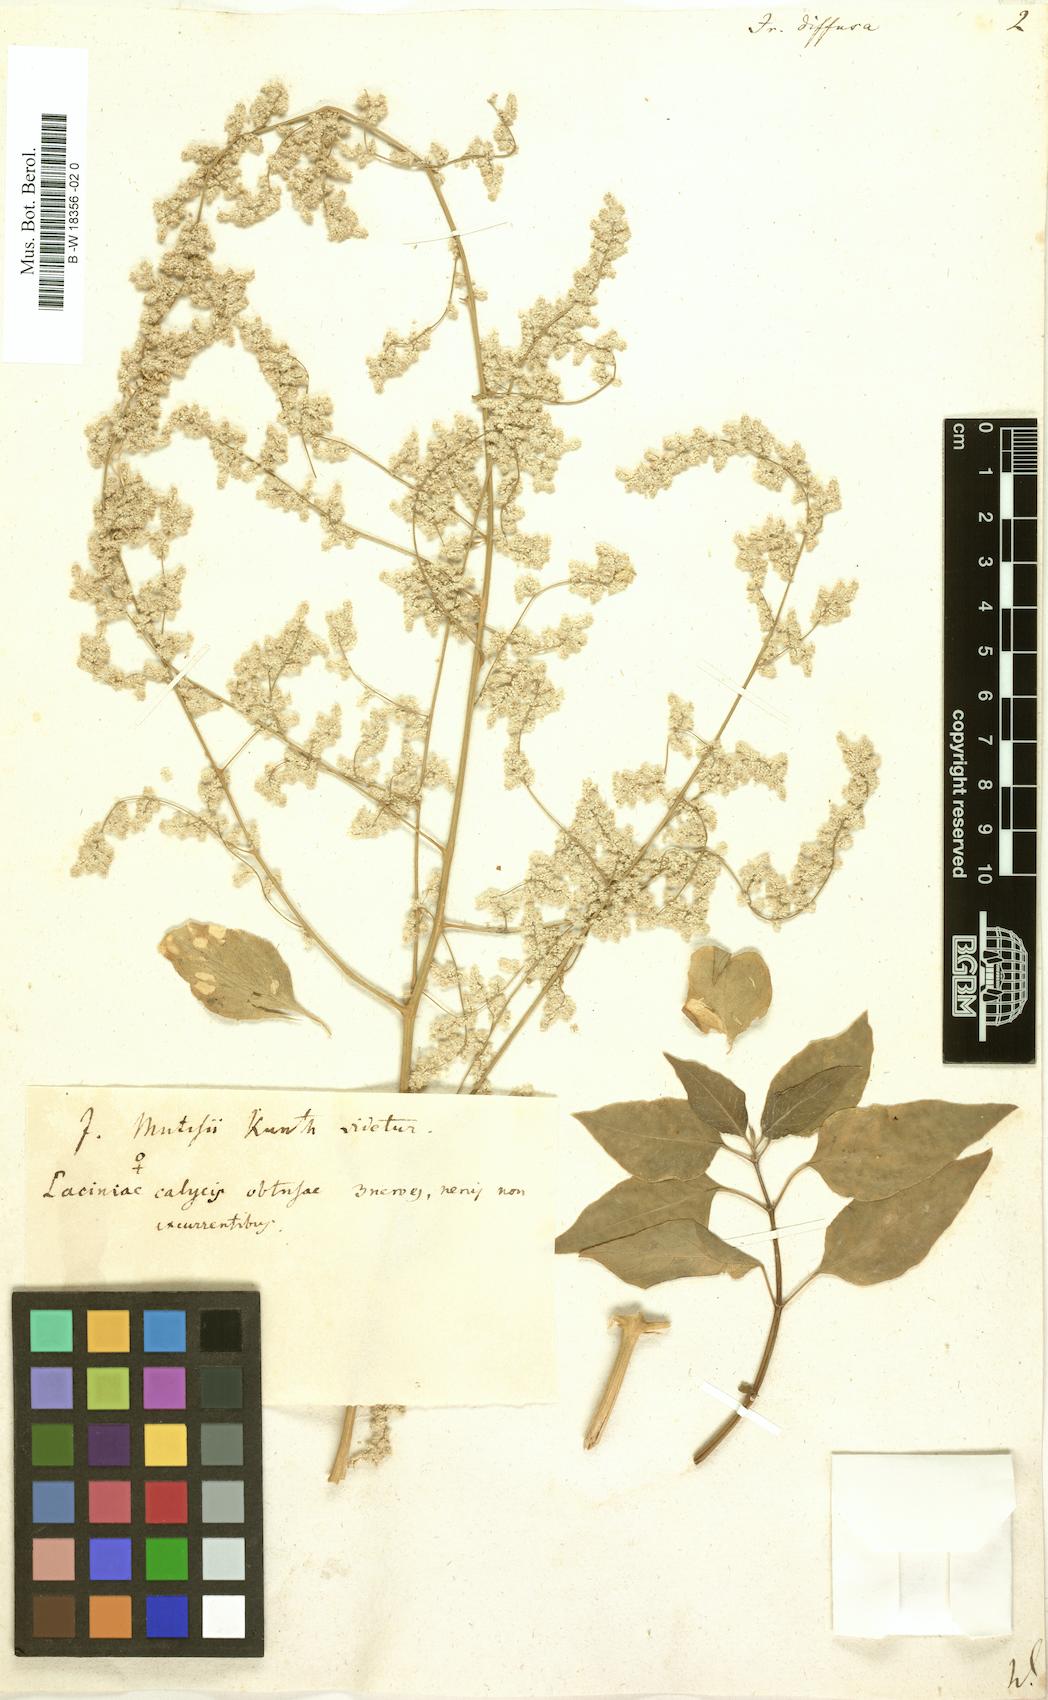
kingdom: Plantae
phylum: Tracheophyta
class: Magnoliopsida
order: Caryophyllales
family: Amaranthaceae
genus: Iresine
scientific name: Iresine diffusa
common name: Juba's-bush
